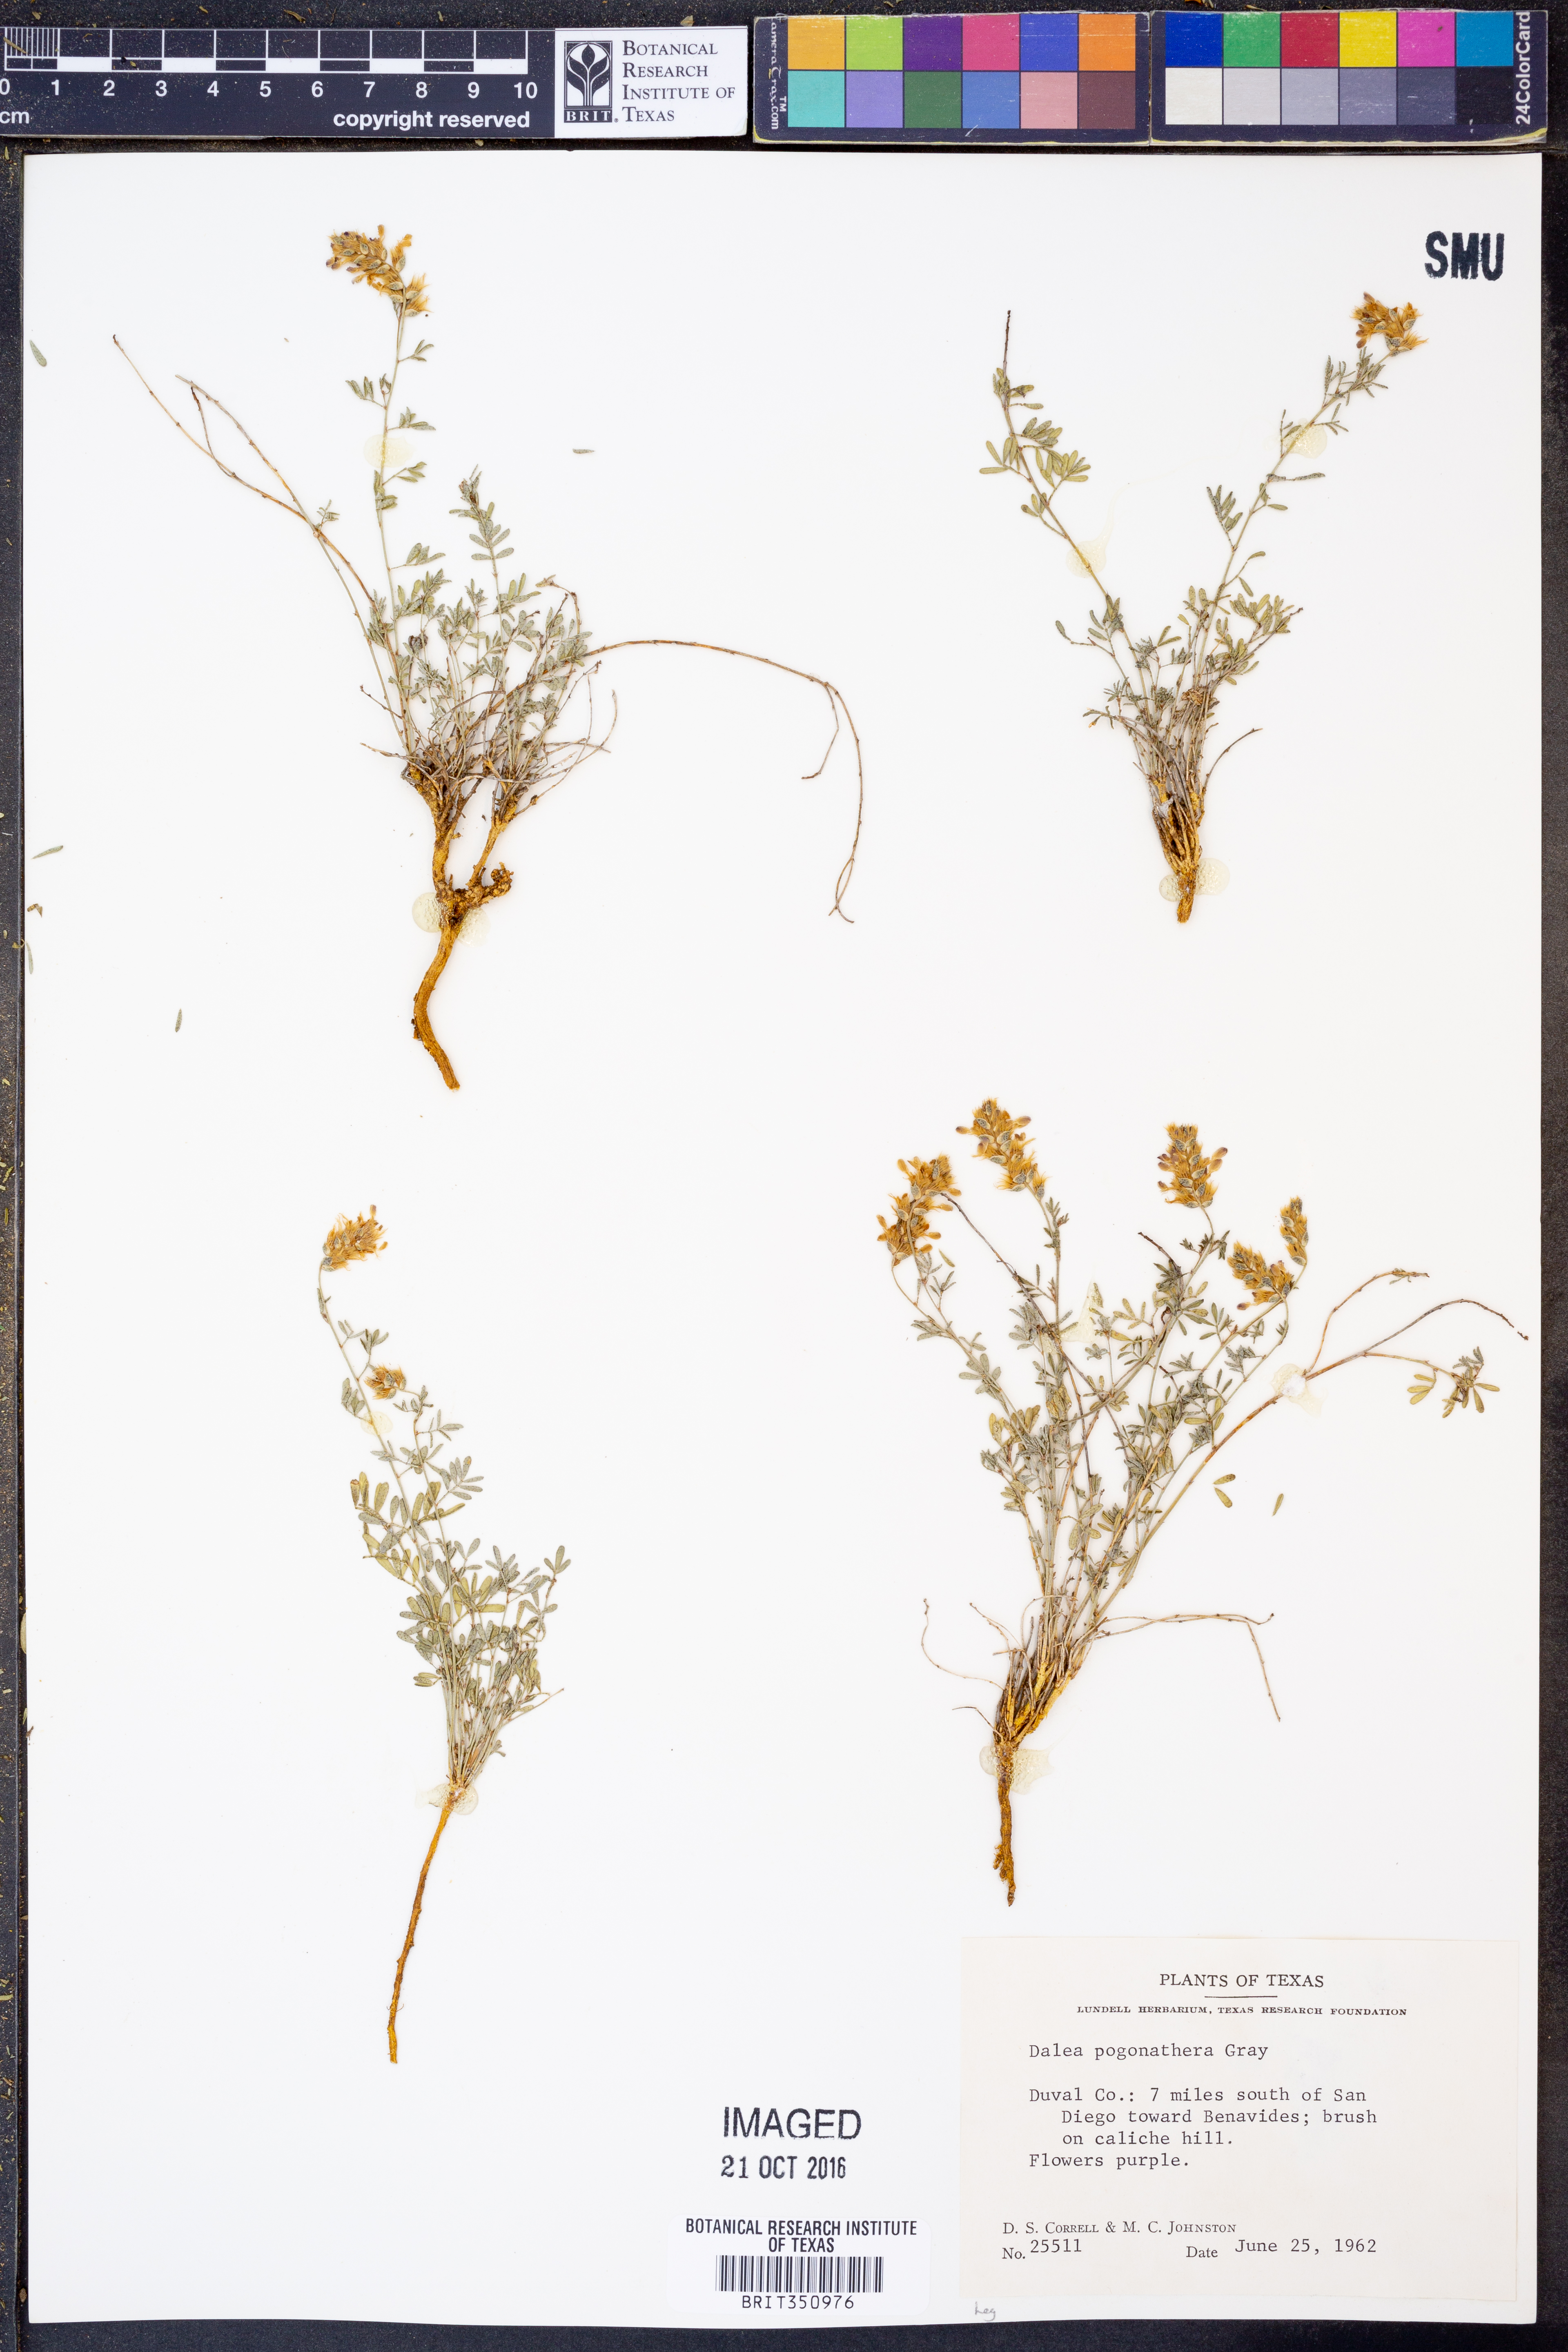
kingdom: Plantae
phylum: Tracheophyta
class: Magnoliopsida
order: Fabales
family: Fabaceae
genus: Dalea
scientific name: Dalea pogonathera
